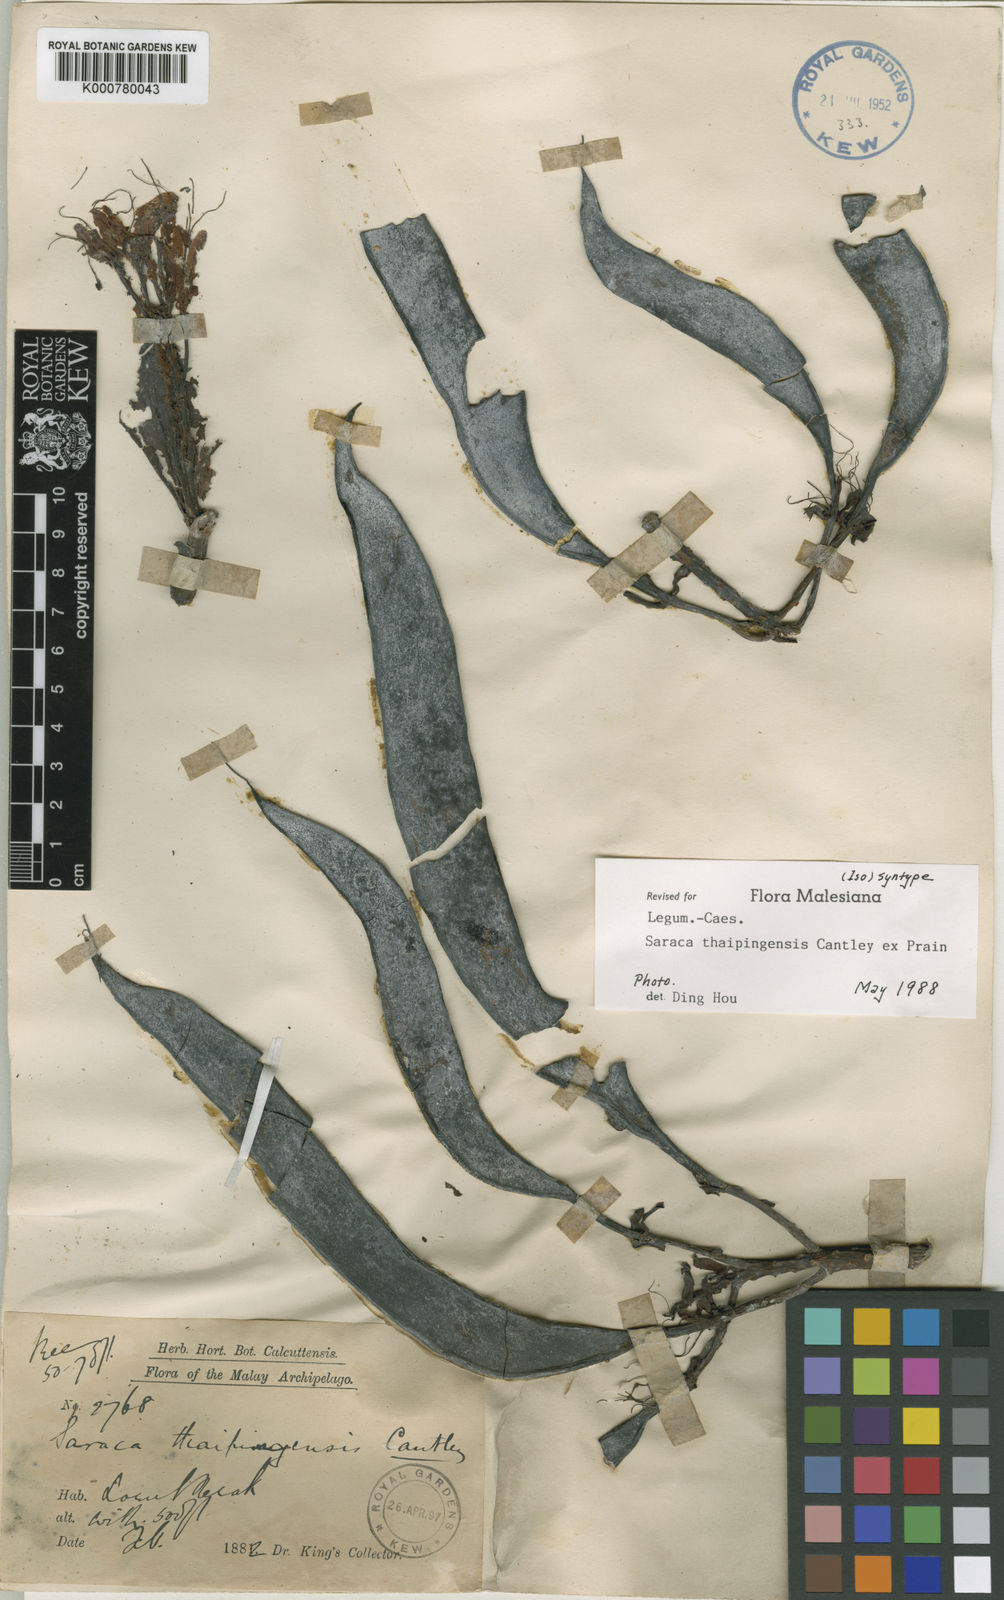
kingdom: Plantae
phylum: Tracheophyta
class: Magnoliopsida
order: Fabales
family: Fabaceae
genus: Saraca
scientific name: Saraca
